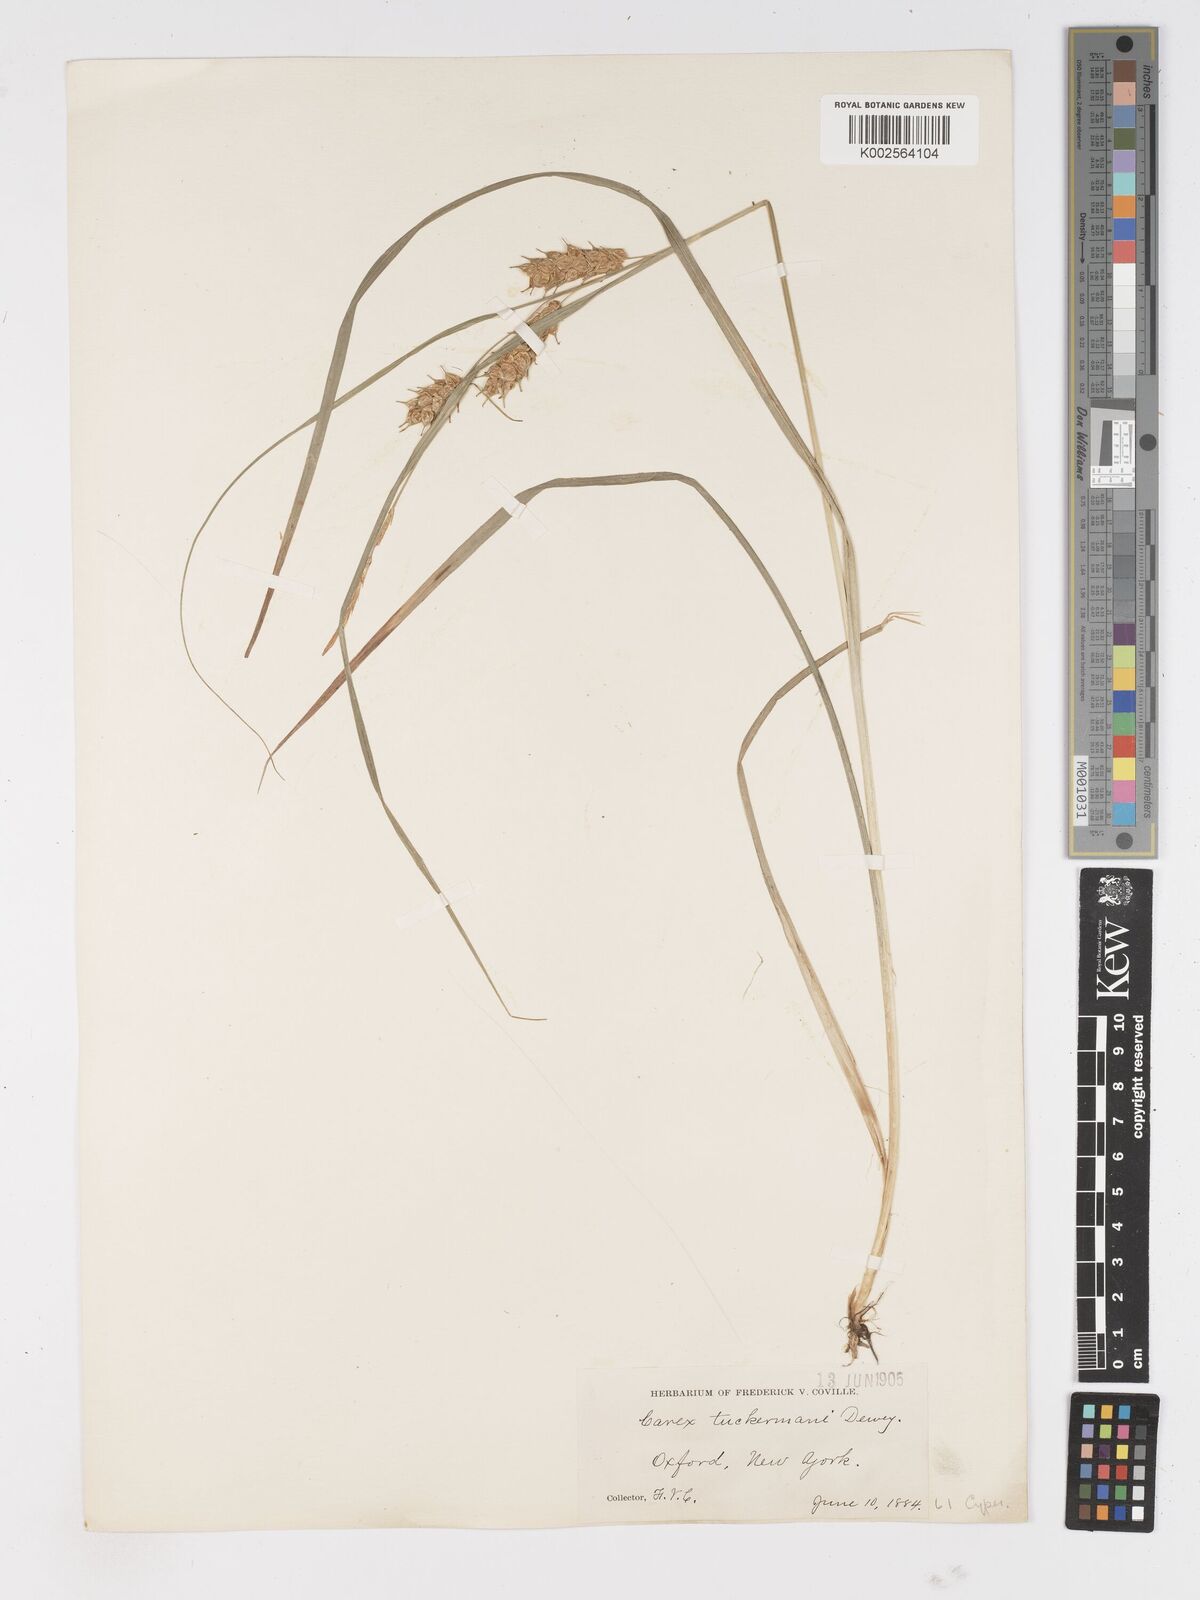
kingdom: Plantae
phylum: Tracheophyta
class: Liliopsida
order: Poales
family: Cyperaceae
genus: Carex
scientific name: Carex tuckermanii
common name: Tuckerman's sedge
